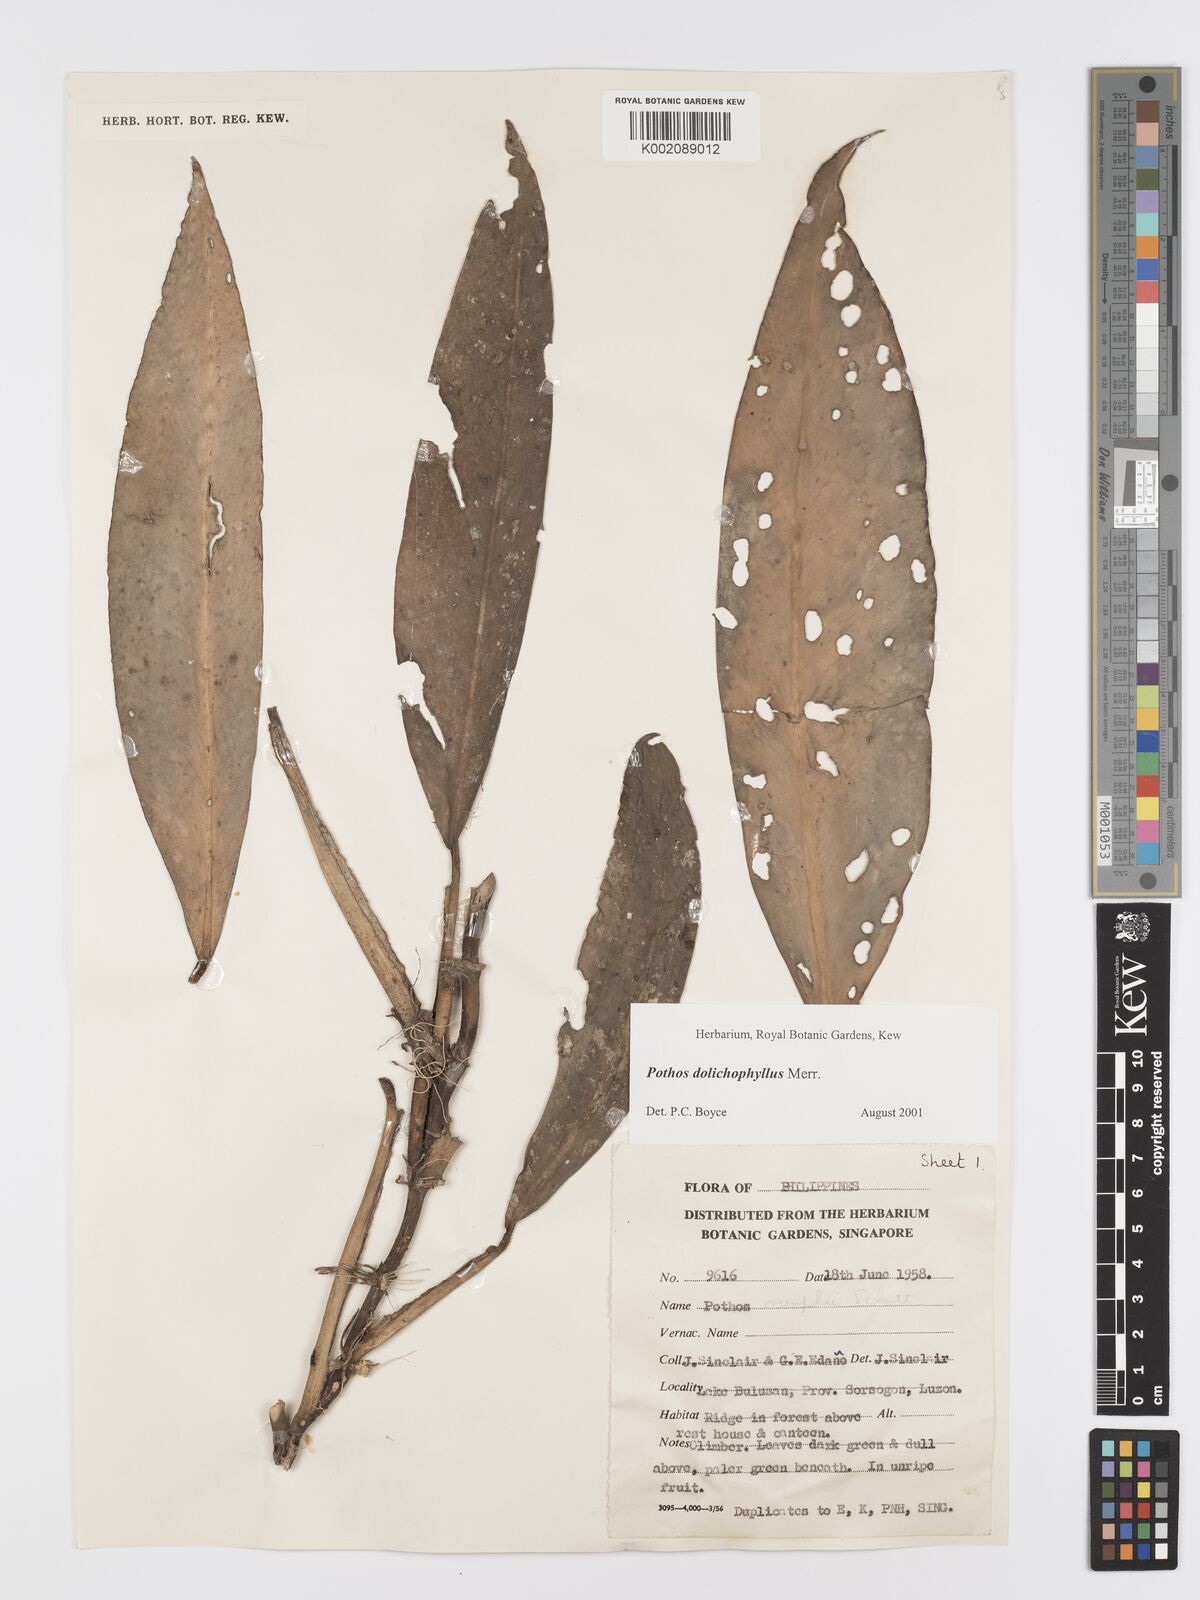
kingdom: Plantae
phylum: Tracheophyta
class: Liliopsida
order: Alismatales
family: Araceae
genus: Pothos
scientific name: Pothos dolichophyllus
